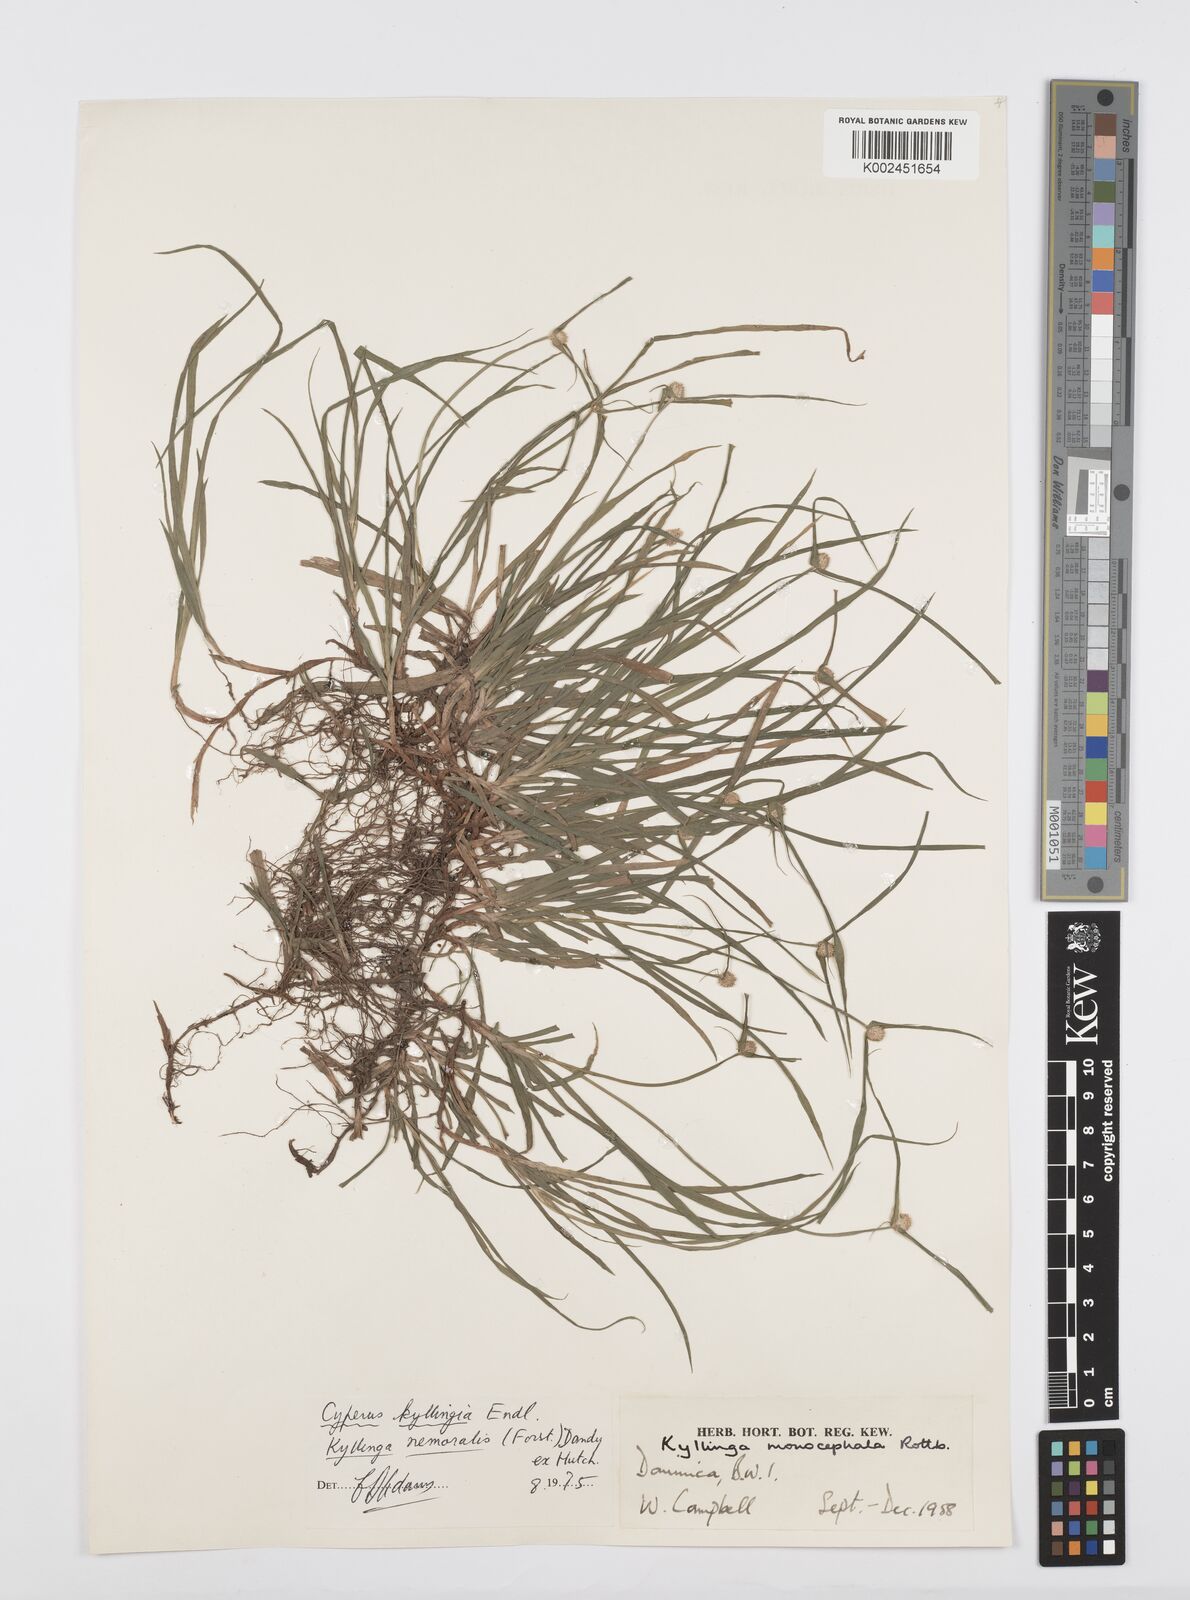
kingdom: Plantae
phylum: Tracheophyta
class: Liliopsida
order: Poales
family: Cyperaceae
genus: Cyperus
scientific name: Cyperus
